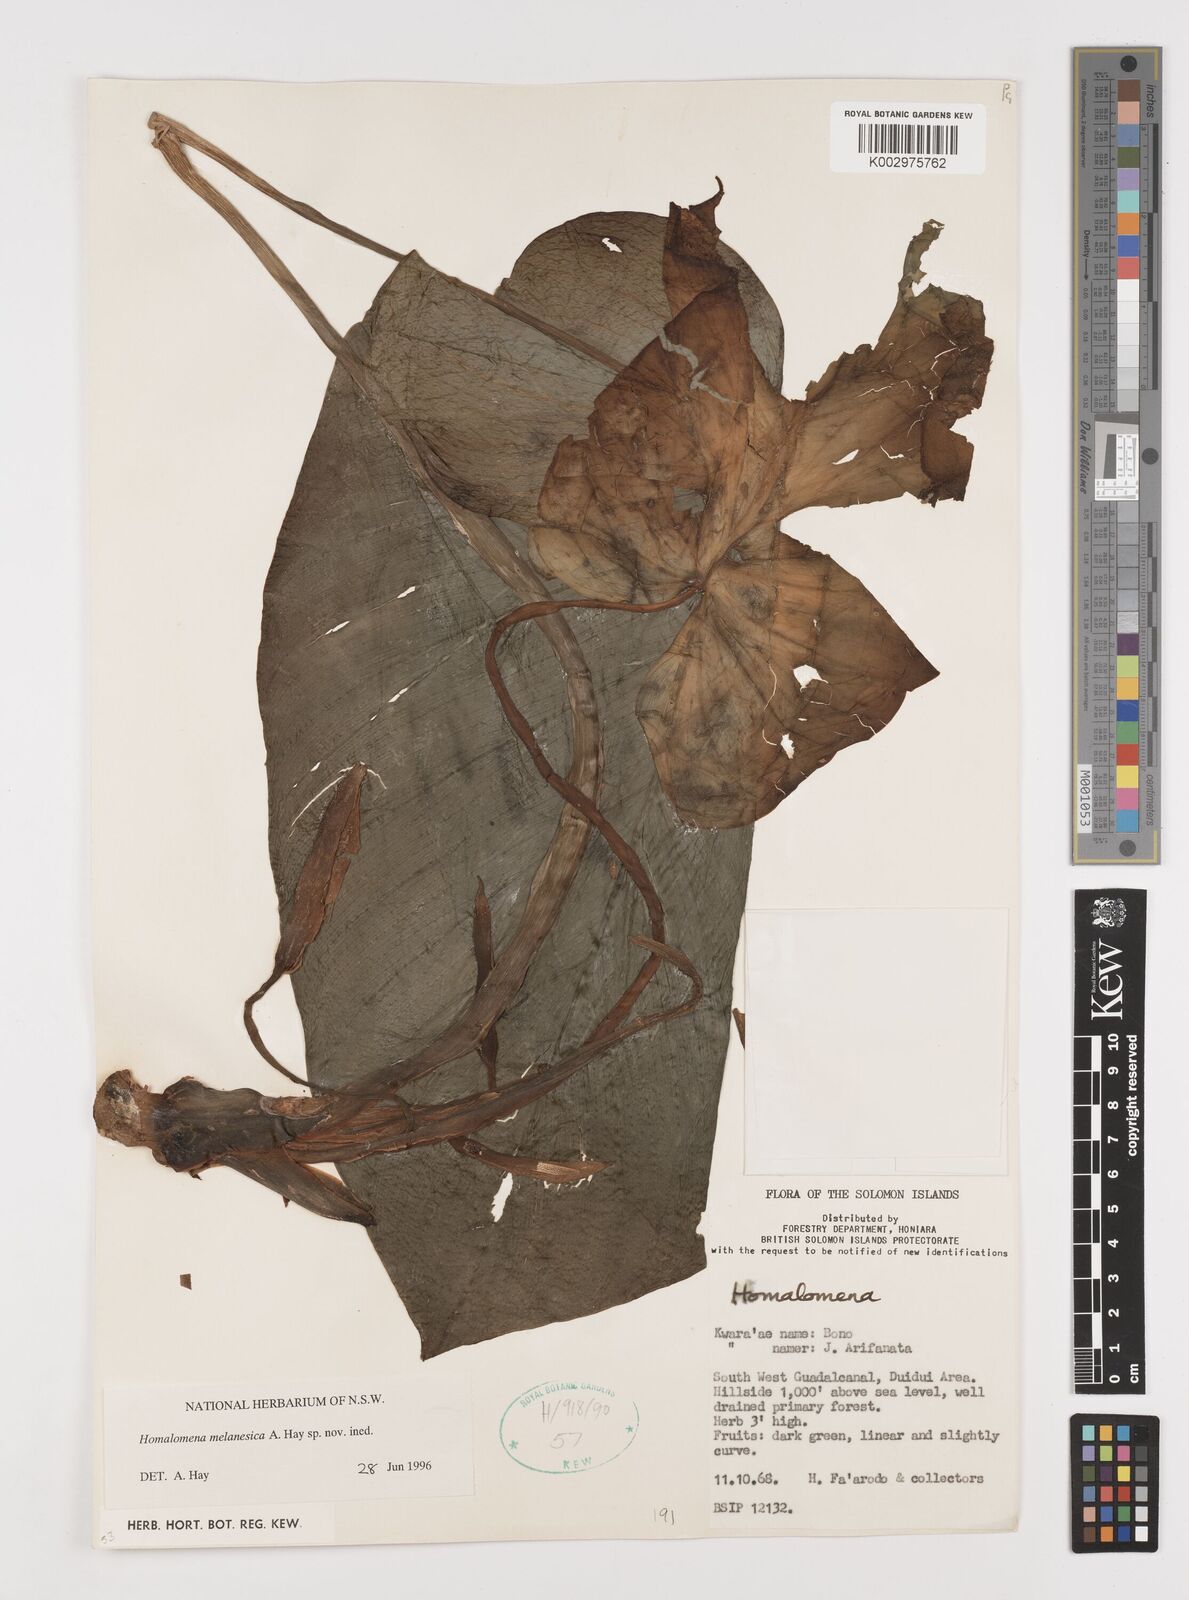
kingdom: Plantae
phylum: Tracheophyta
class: Liliopsida
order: Alismatales
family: Araceae
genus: Homalomena
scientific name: Homalomena melanesica
